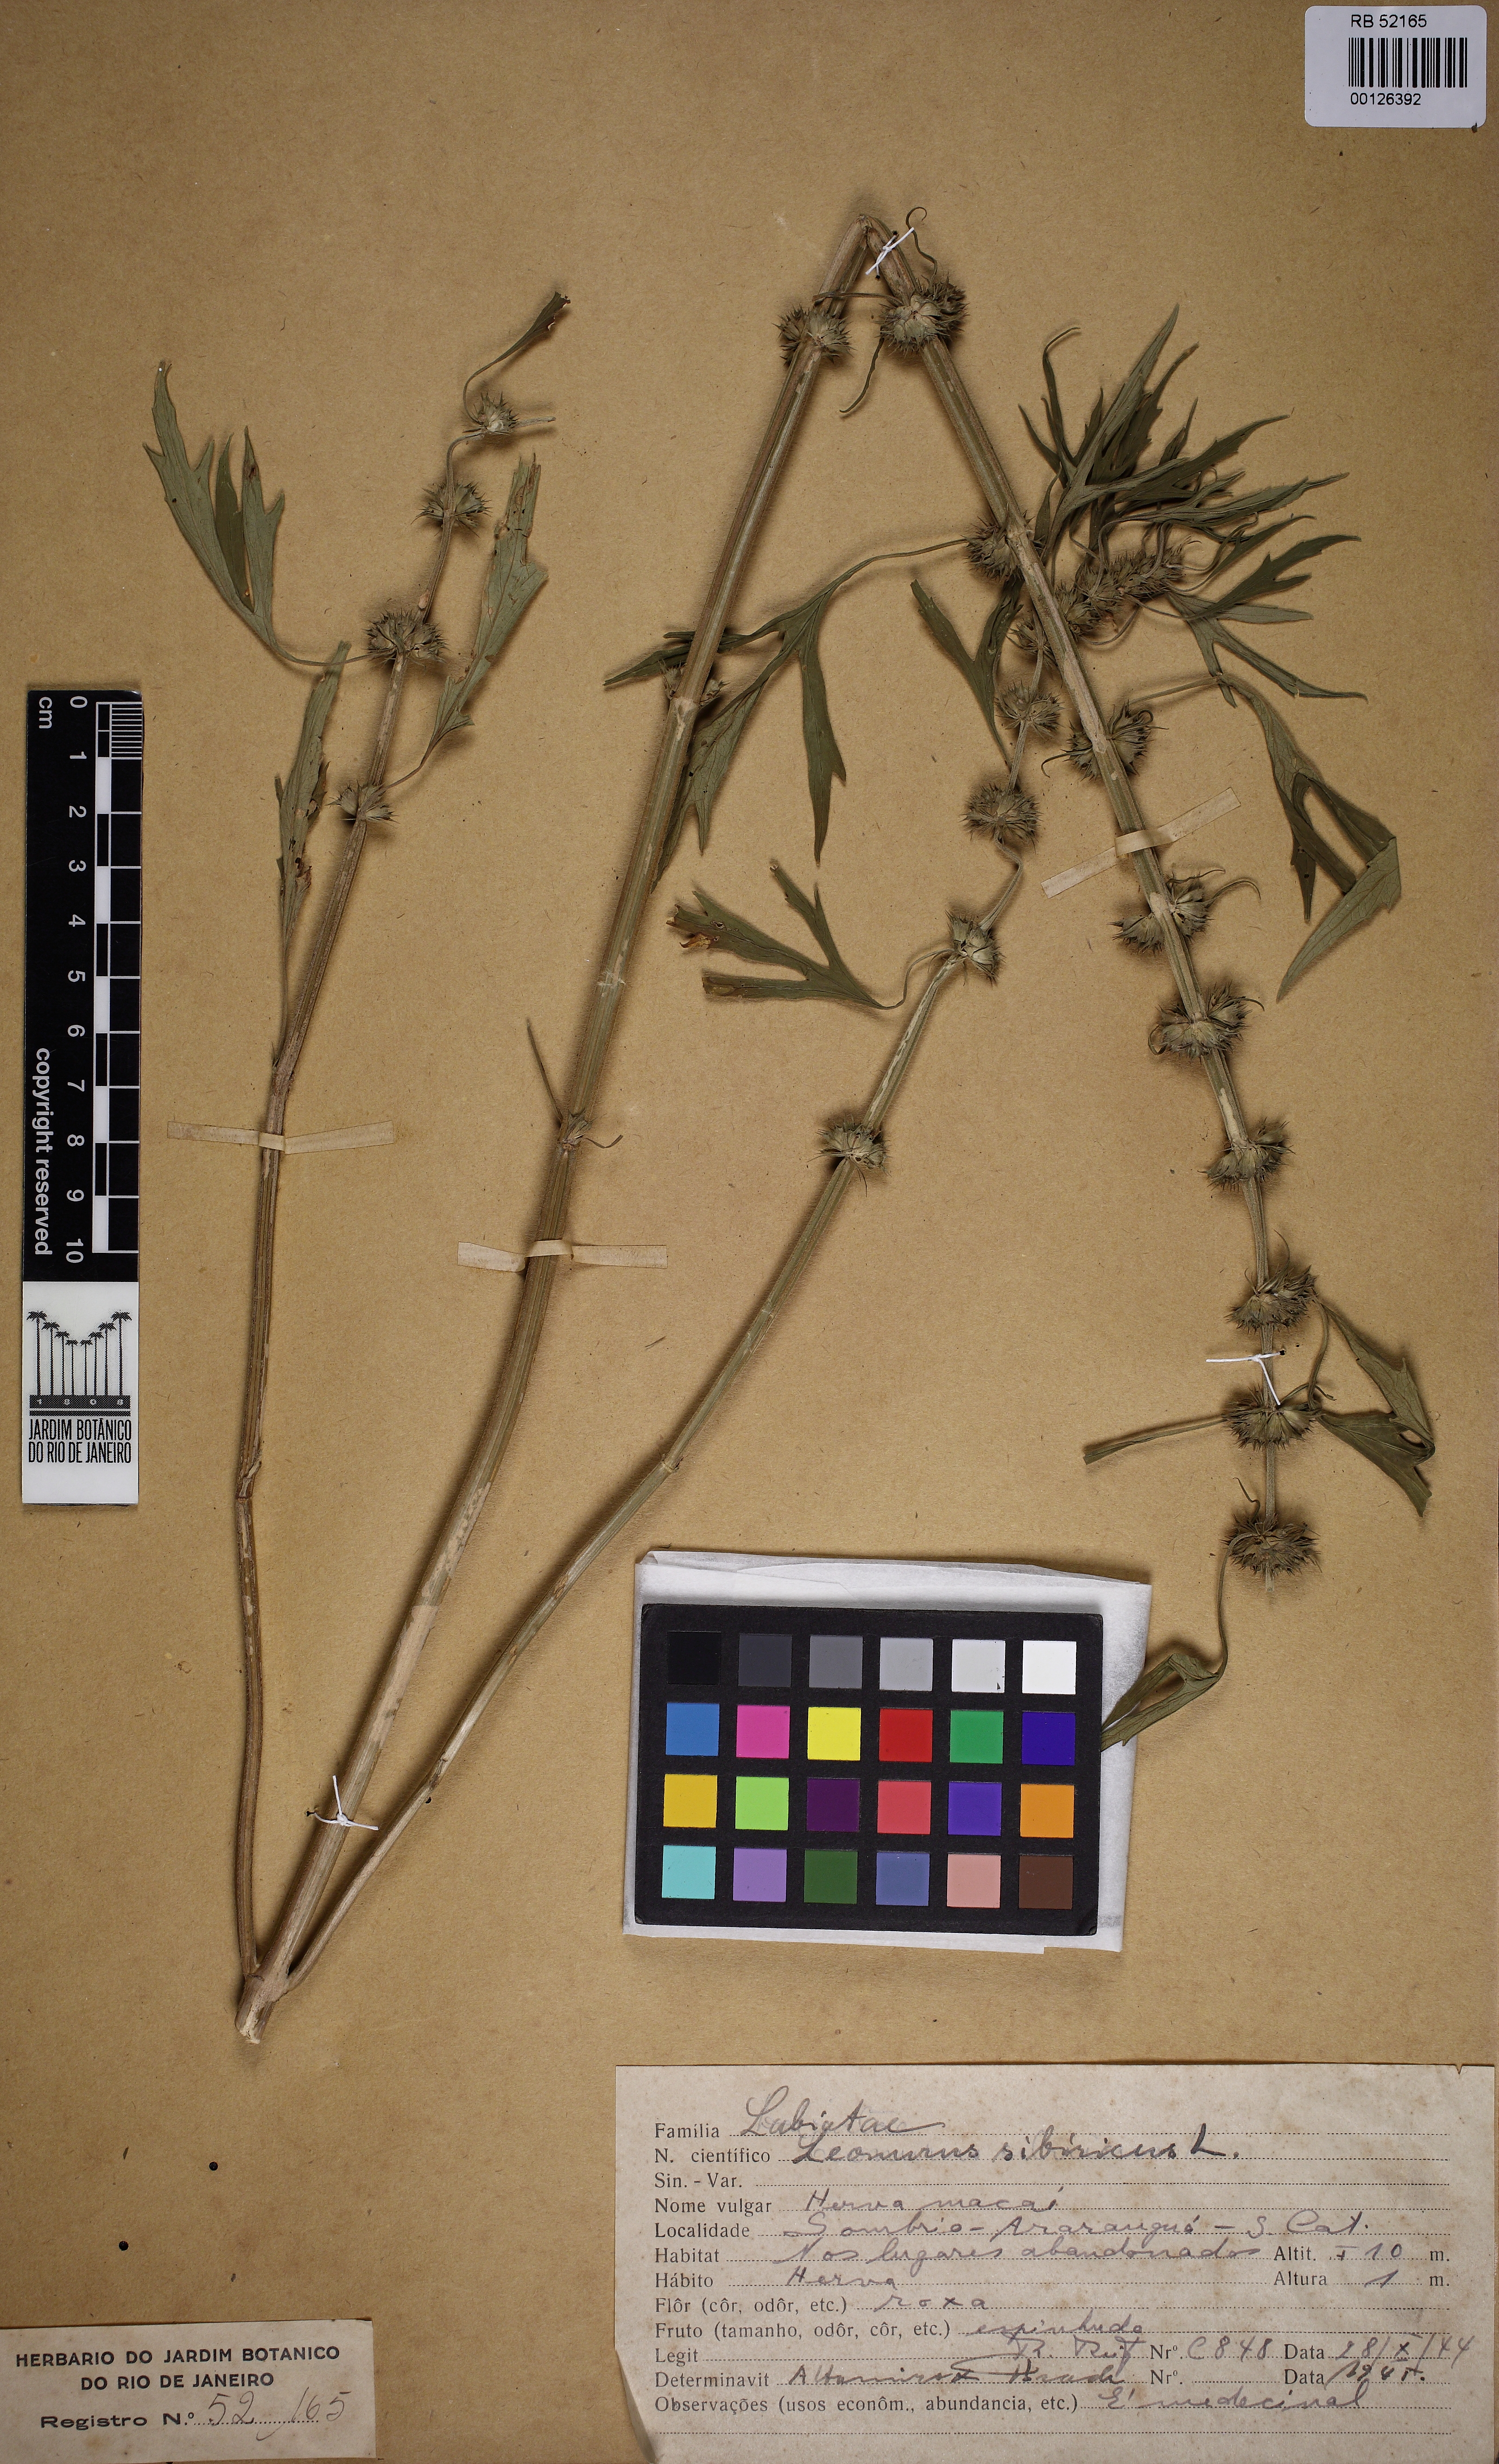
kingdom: Plantae
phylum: Tracheophyta
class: Magnoliopsida
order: Lamiales
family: Lamiaceae
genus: Leonurus
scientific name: Leonurus sibiricus
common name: Honeyweed
